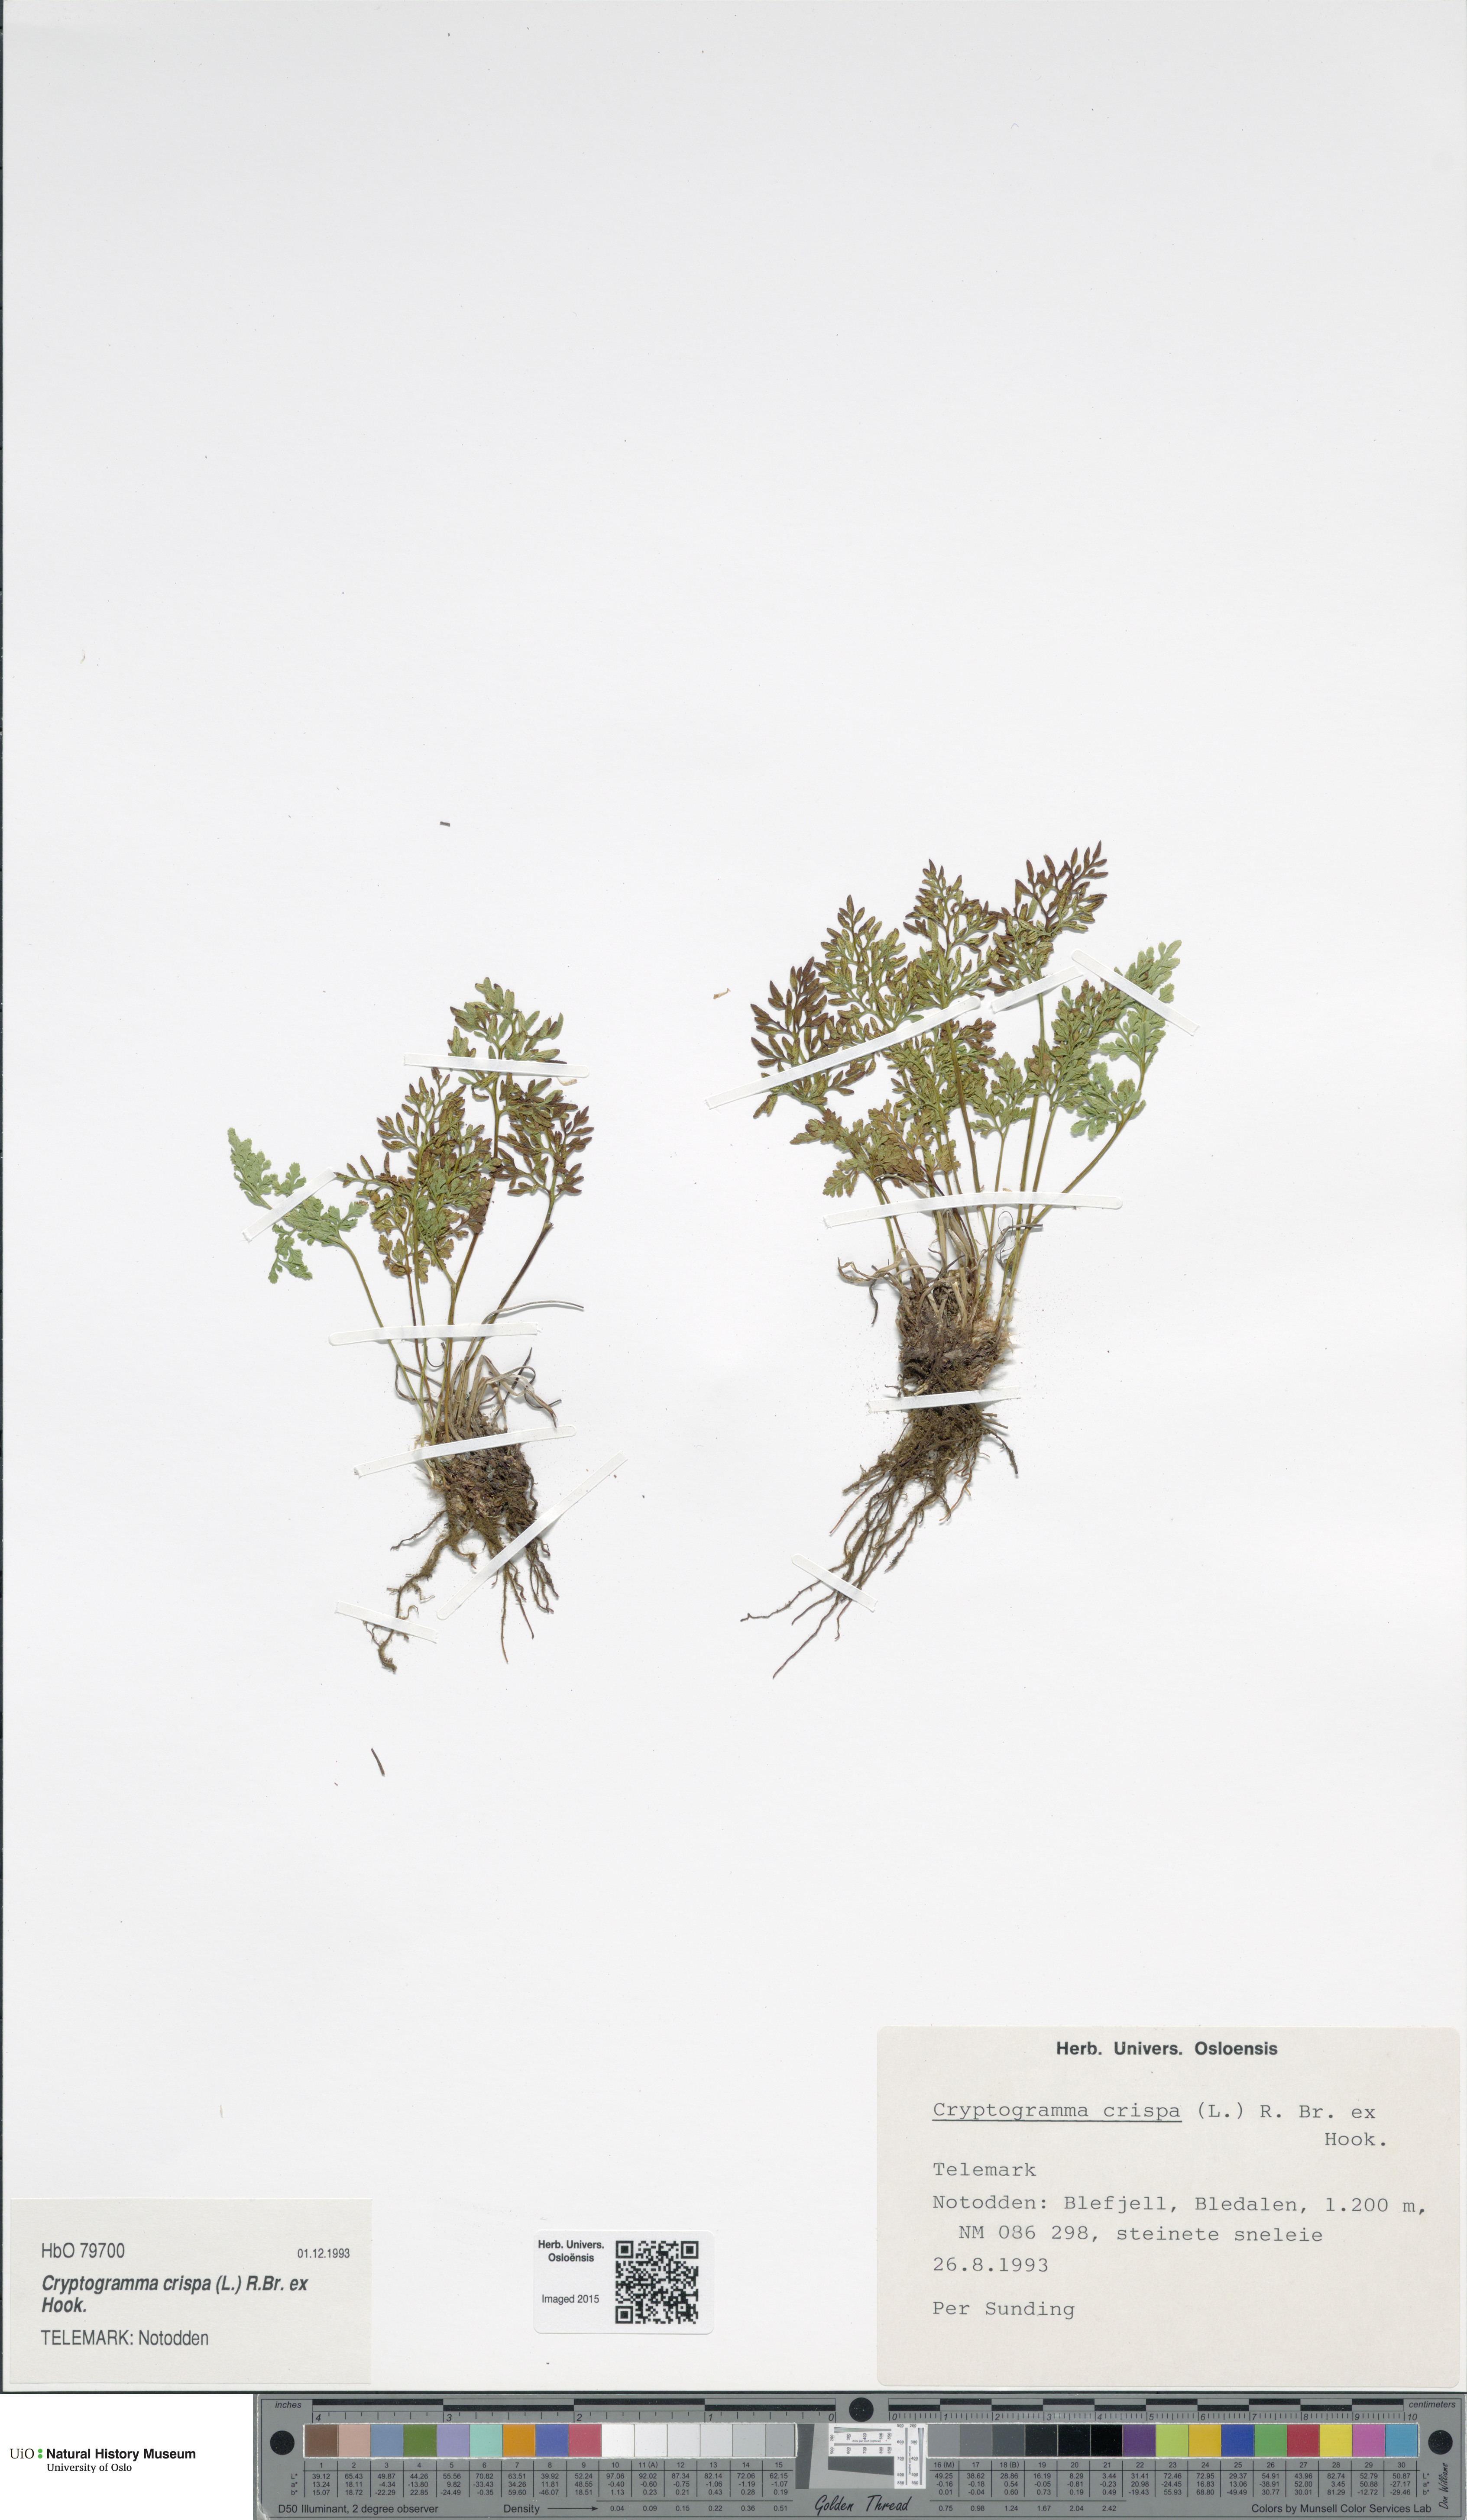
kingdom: Plantae
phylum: Tracheophyta
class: Polypodiopsida
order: Polypodiales
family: Pteridaceae
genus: Cryptogramma
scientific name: Cryptogramma crispa
